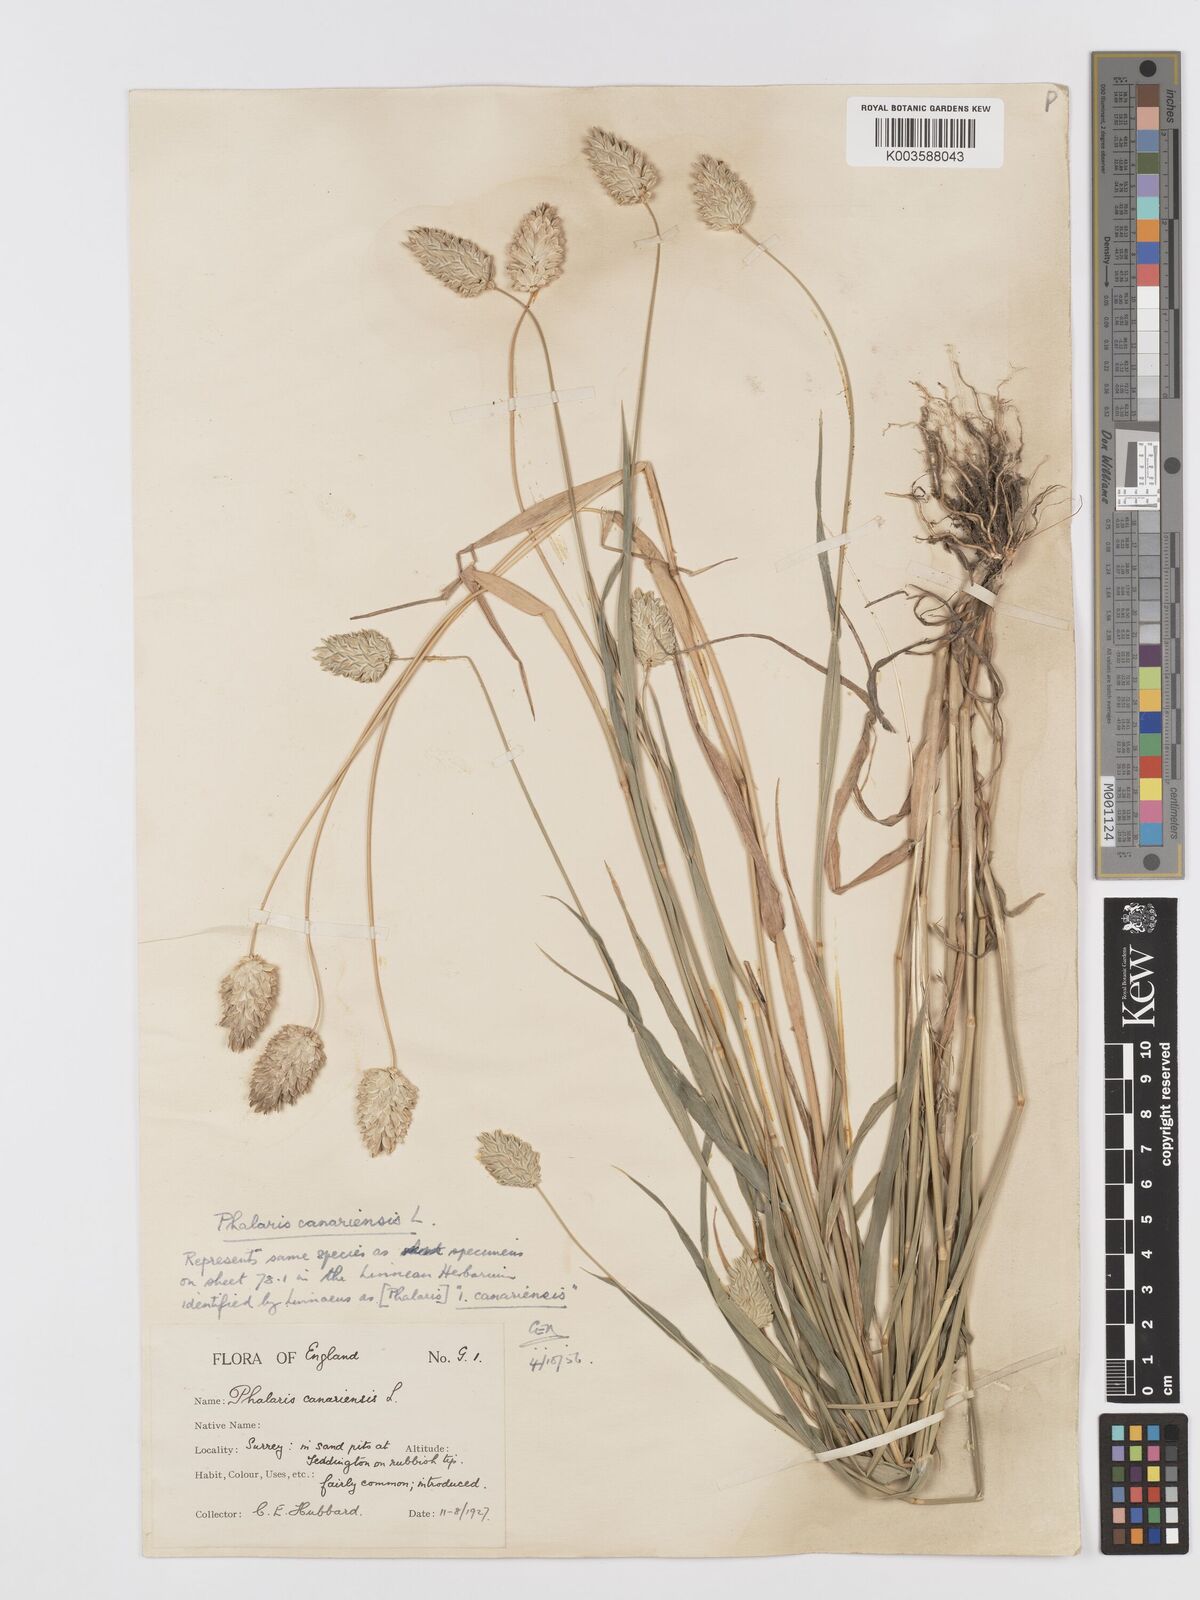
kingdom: Plantae
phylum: Tracheophyta
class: Liliopsida
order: Poales
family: Poaceae
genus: Phalaris
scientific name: Phalaris canariensis
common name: Annual canarygrass
